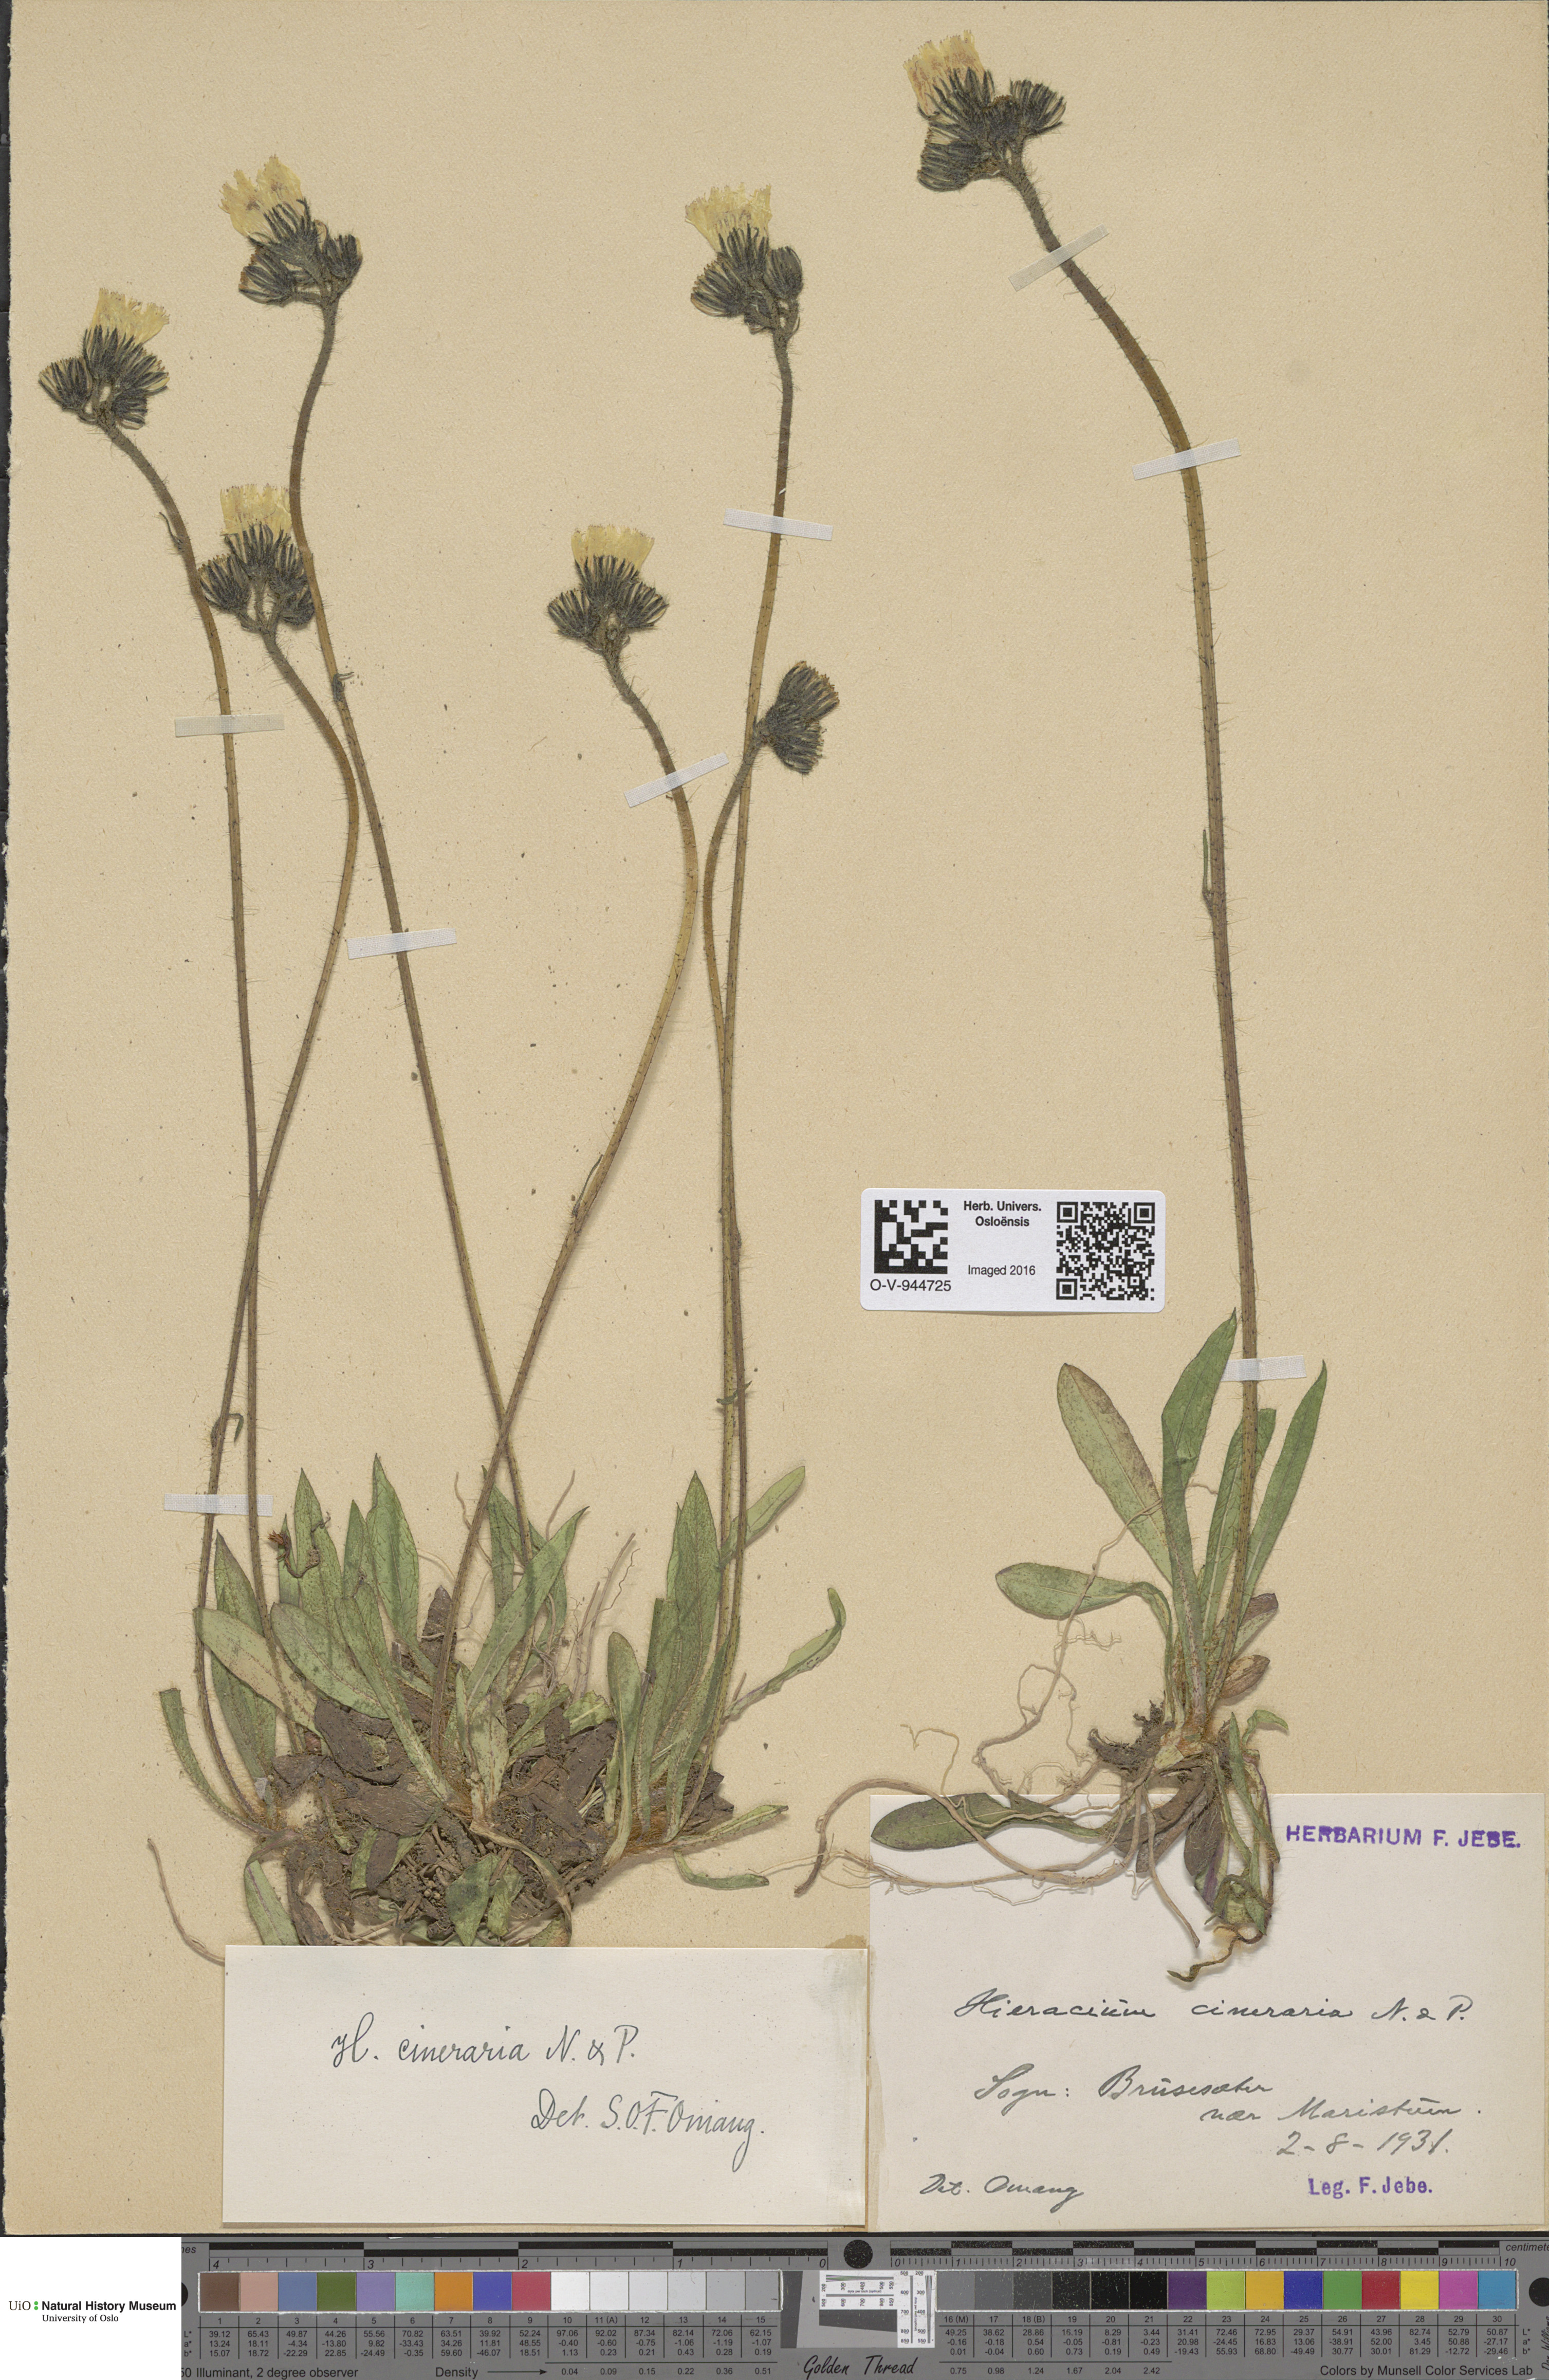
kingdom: Plantae
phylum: Tracheophyta
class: Magnoliopsida
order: Asterales
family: Asteraceae
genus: Pilosella
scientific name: Pilosella moechiadia
